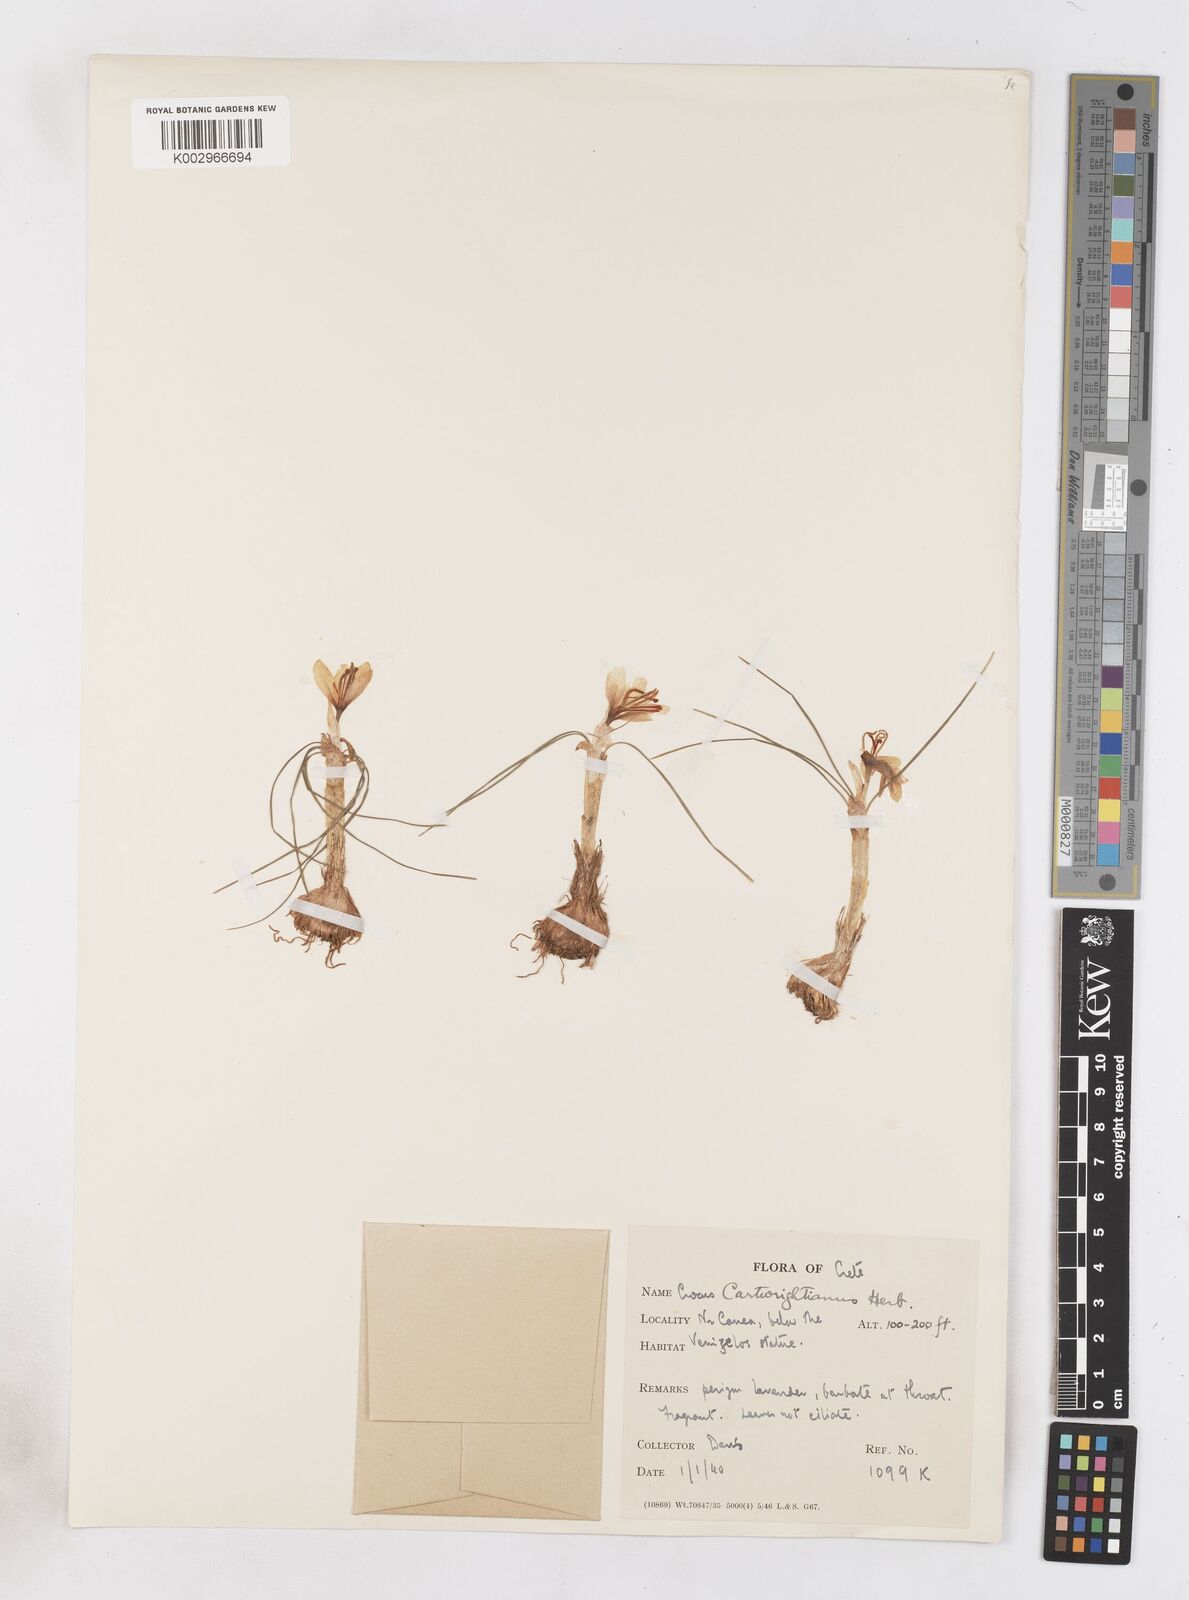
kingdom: Plantae
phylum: Tracheophyta
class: Liliopsida
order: Asparagales
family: Iridaceae
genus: Crocus
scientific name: Crocus cartwrightianus
